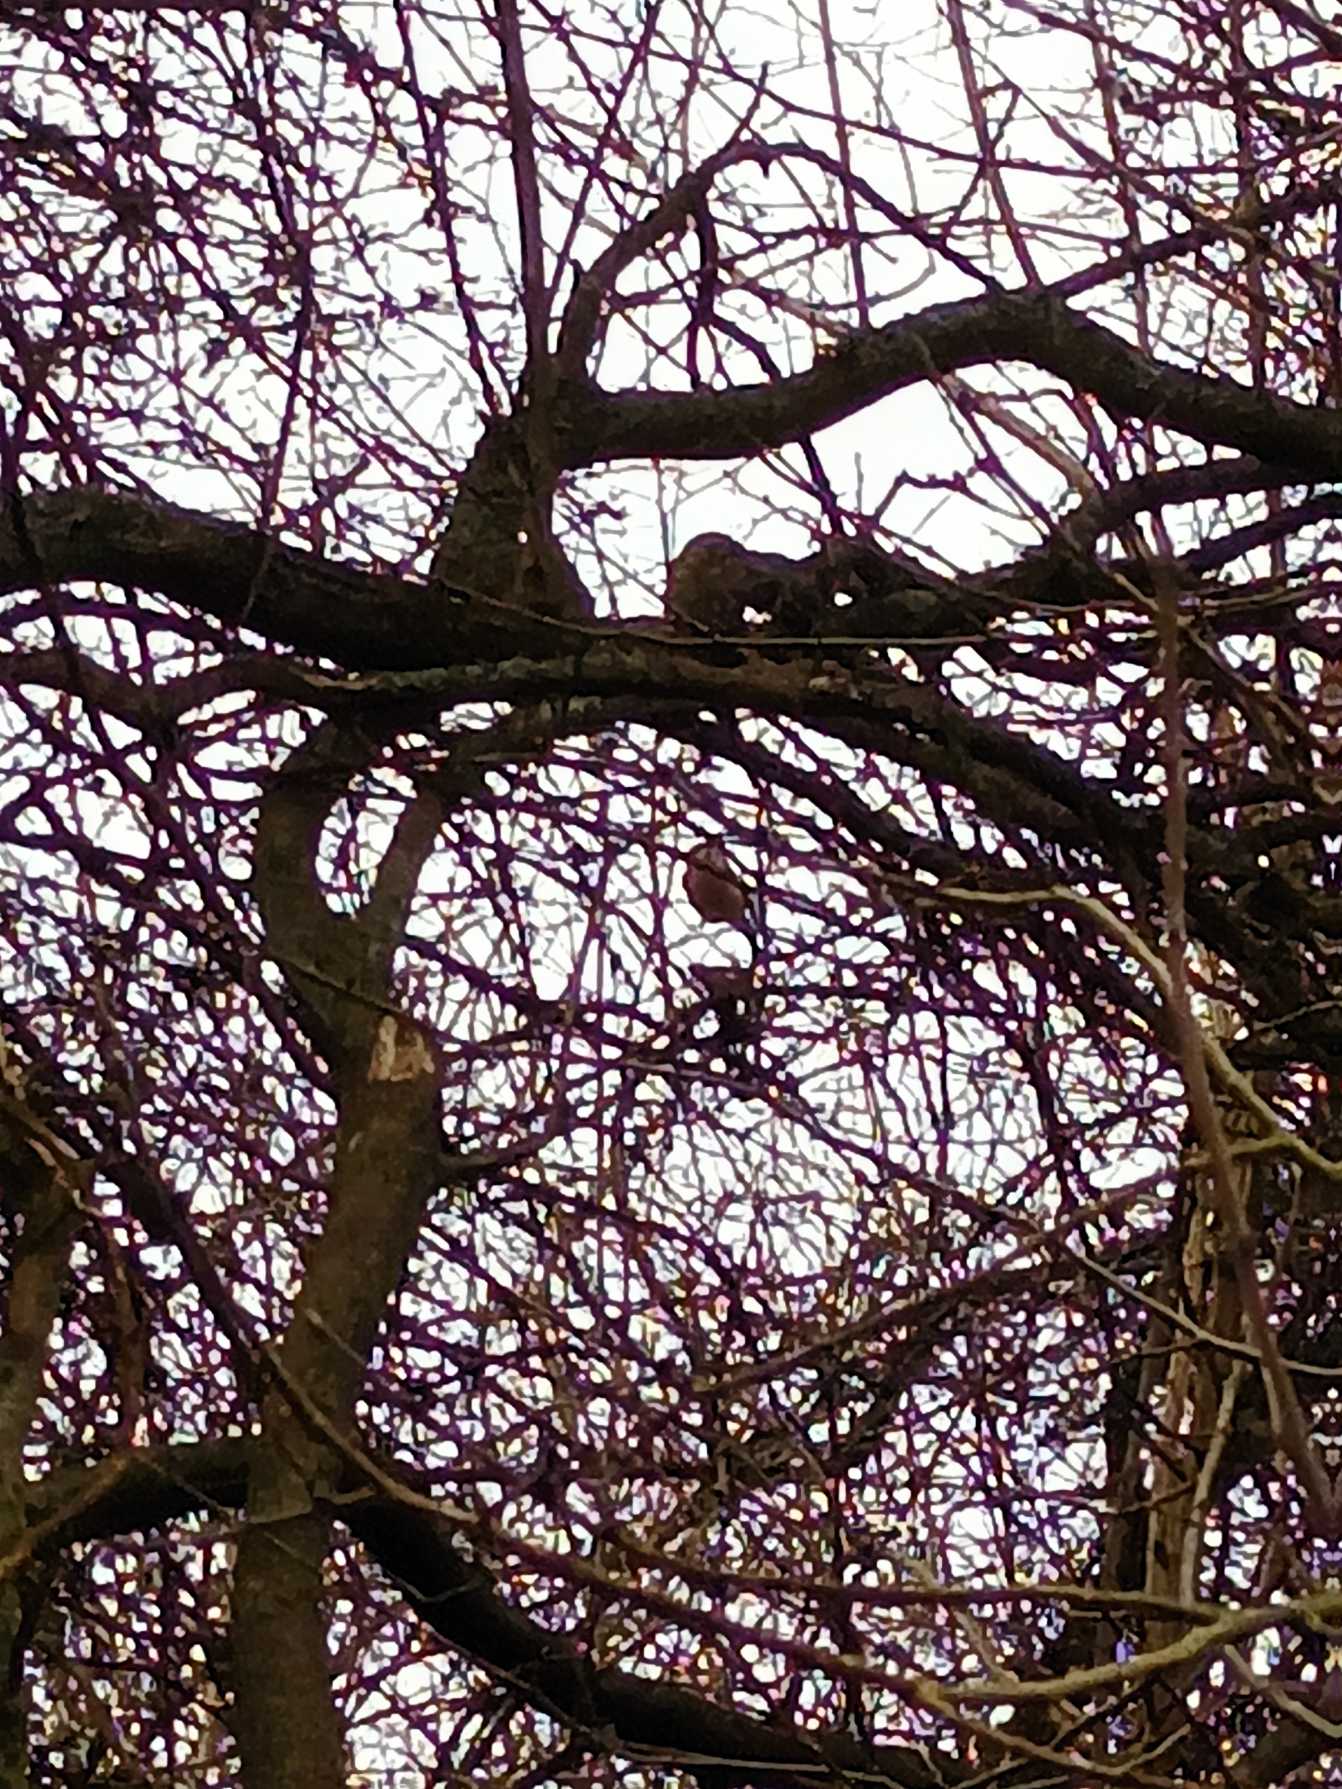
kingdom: Animalia
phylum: Chordata
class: Aves
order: Passeriformes
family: Fringillidae
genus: Pyrrhula
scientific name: Pyrrhula pyrrhula
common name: Dompap
